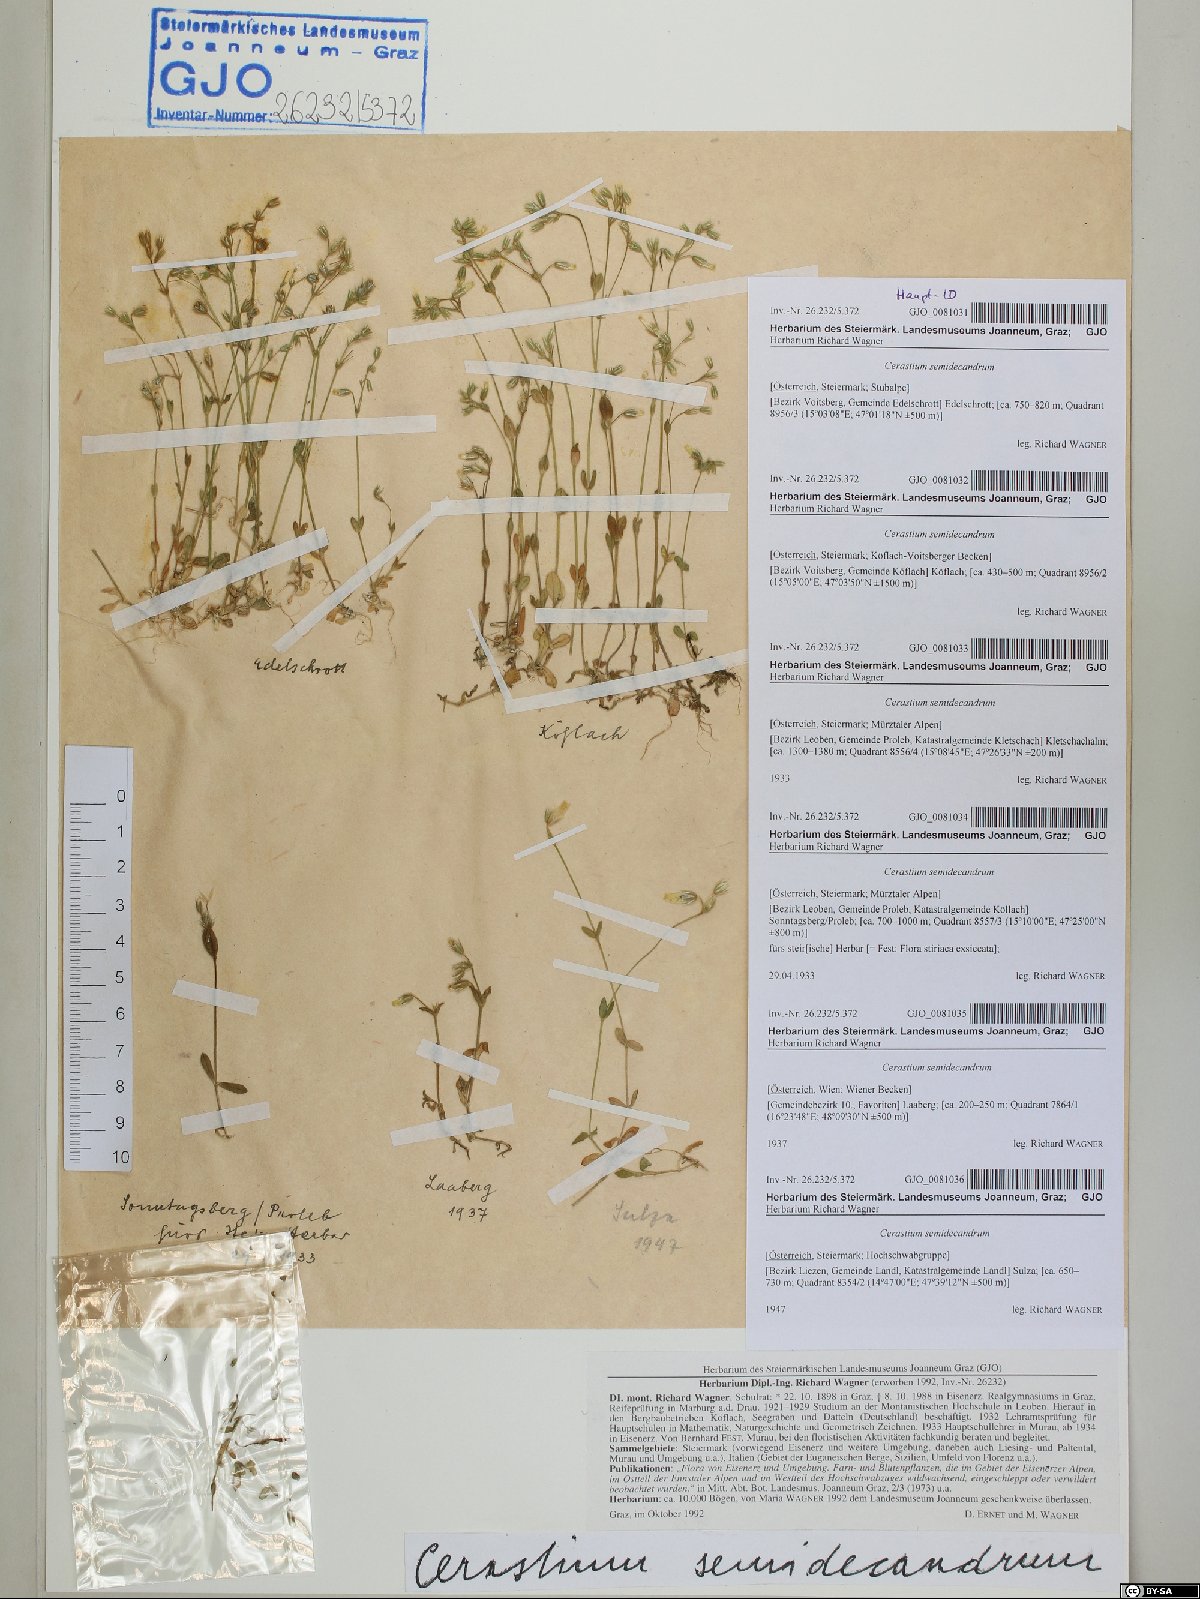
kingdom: Plantae
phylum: Tracheophyta
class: Magnoliopsida
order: Caryophyllales
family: Caryophyllaceae
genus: Cerastium
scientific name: Cerastium semidecandrum
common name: Little mouse-ear
